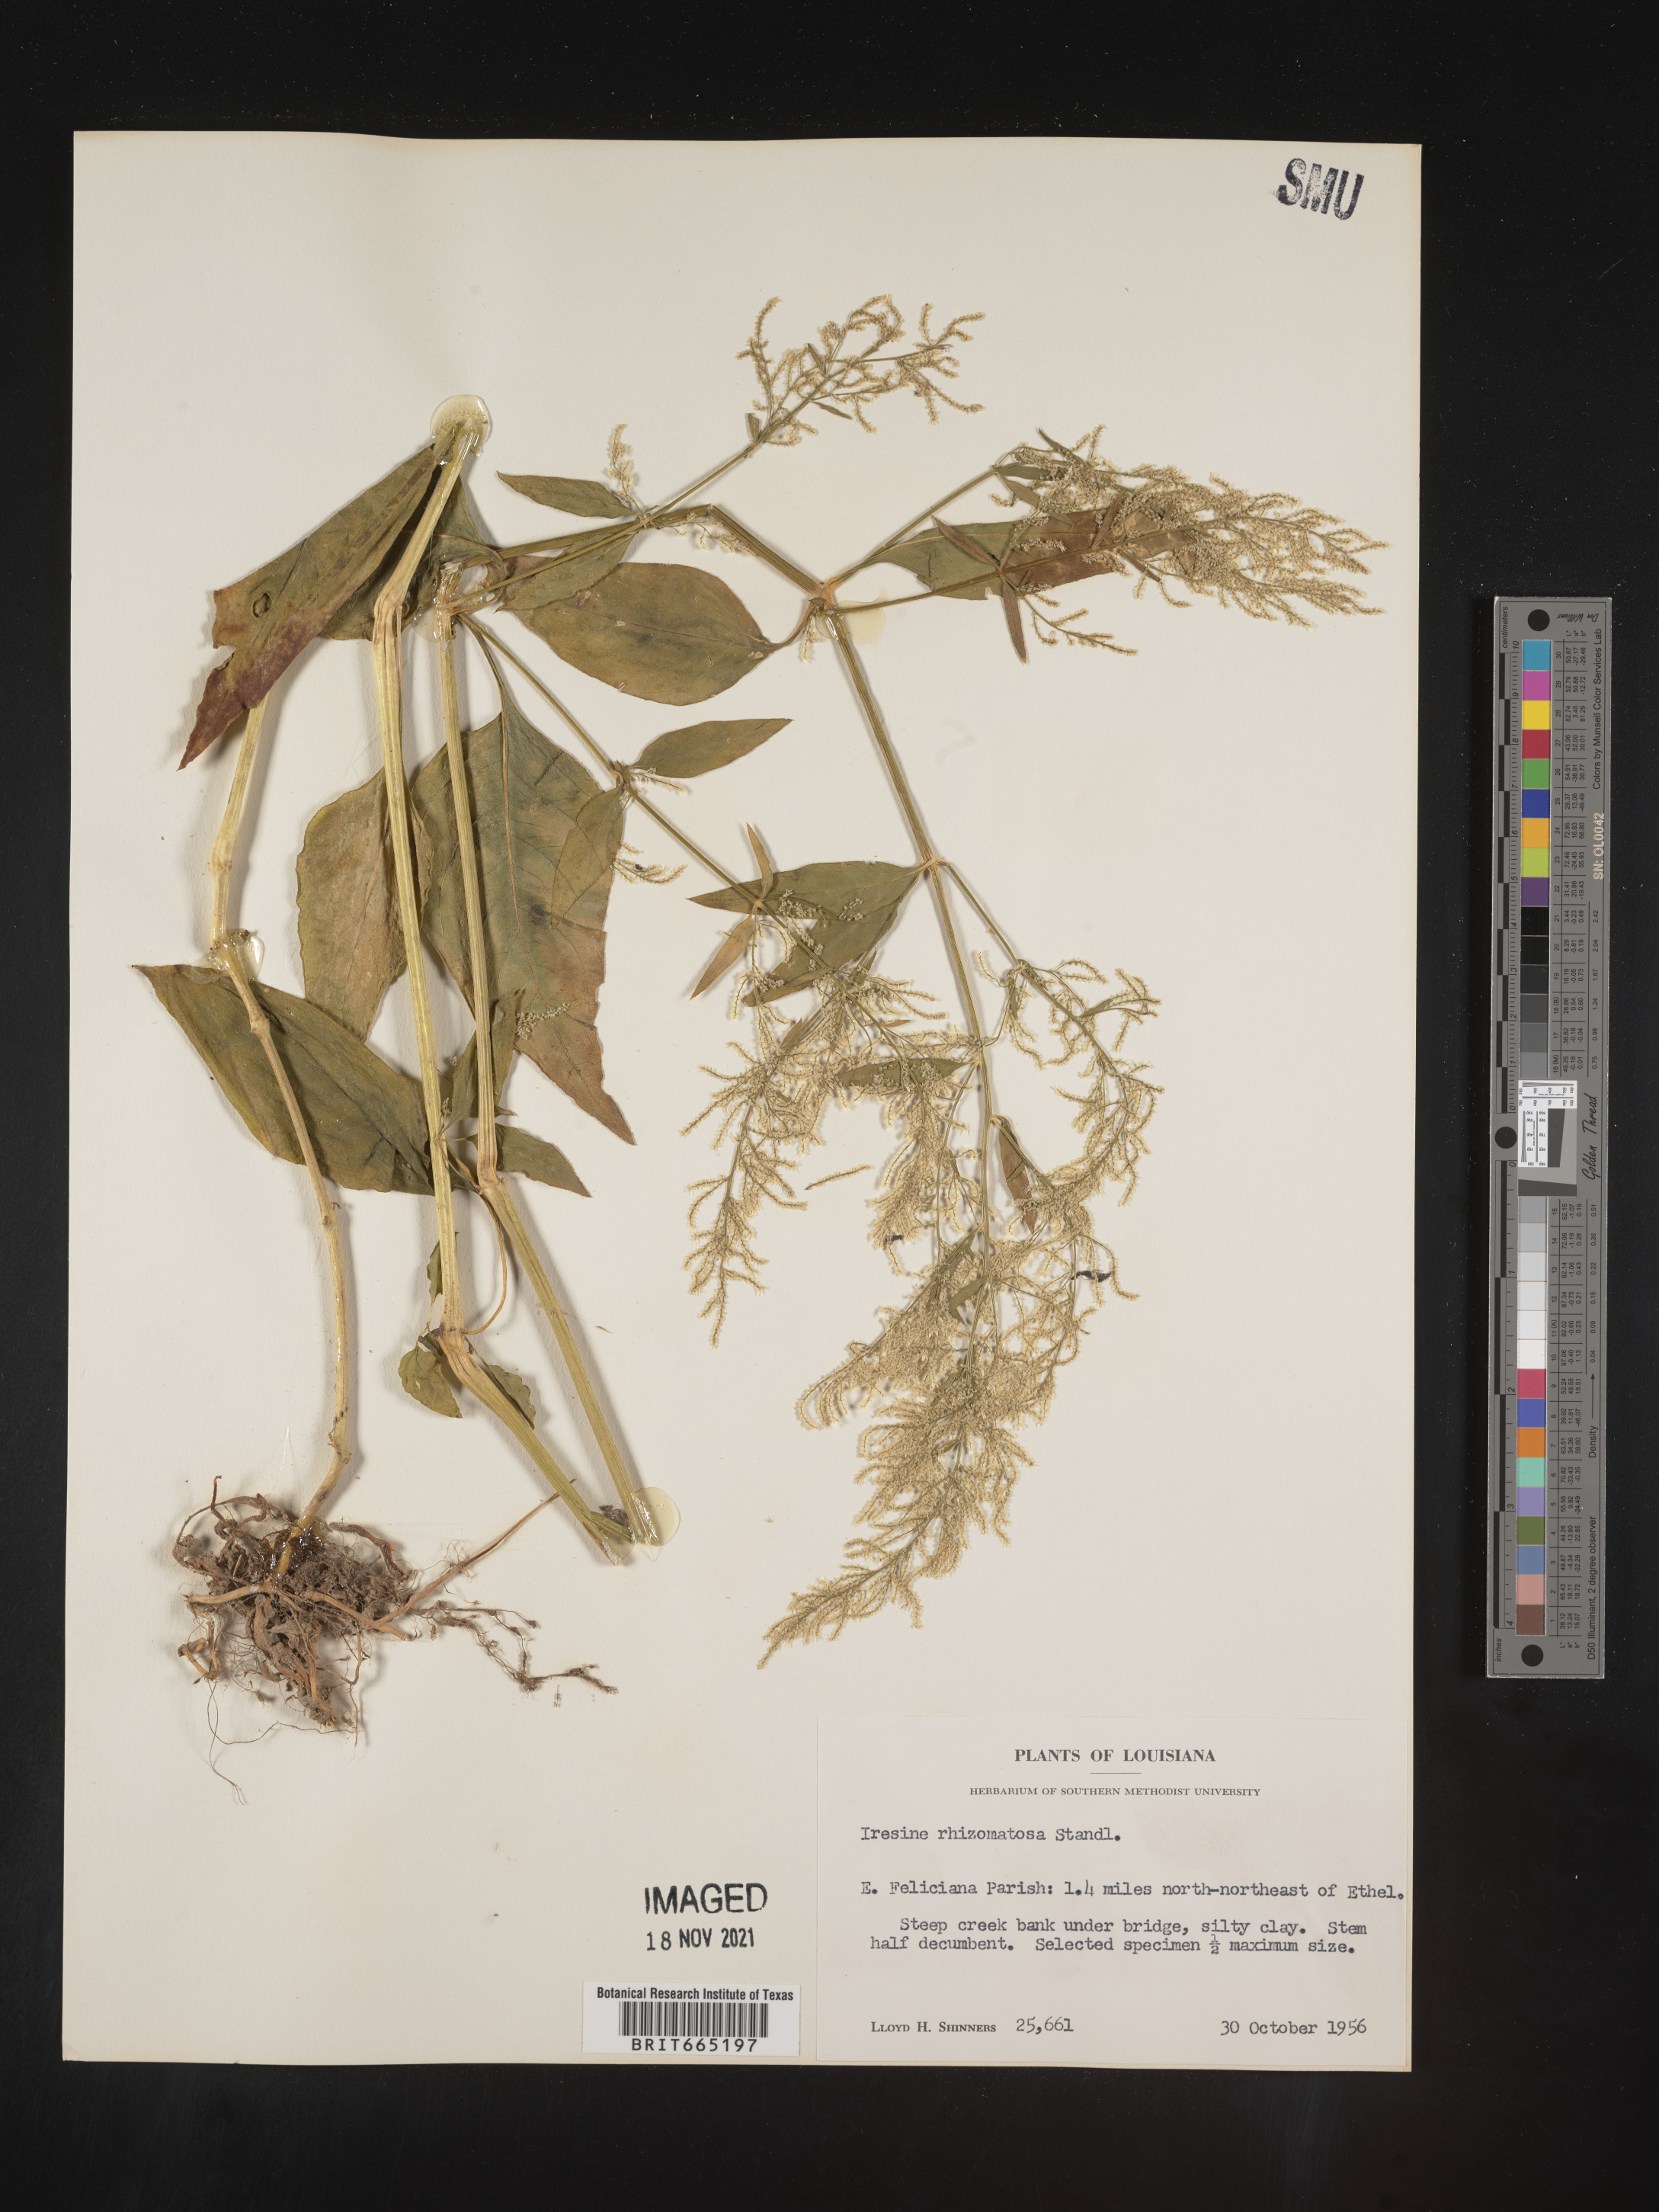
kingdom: Plantae
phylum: Tracheophyta
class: Magnoliopsida
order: Caryophyllales
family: Amaranthaceae
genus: Iresine
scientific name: Iresine rhizomatosa
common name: Juda's-bush
